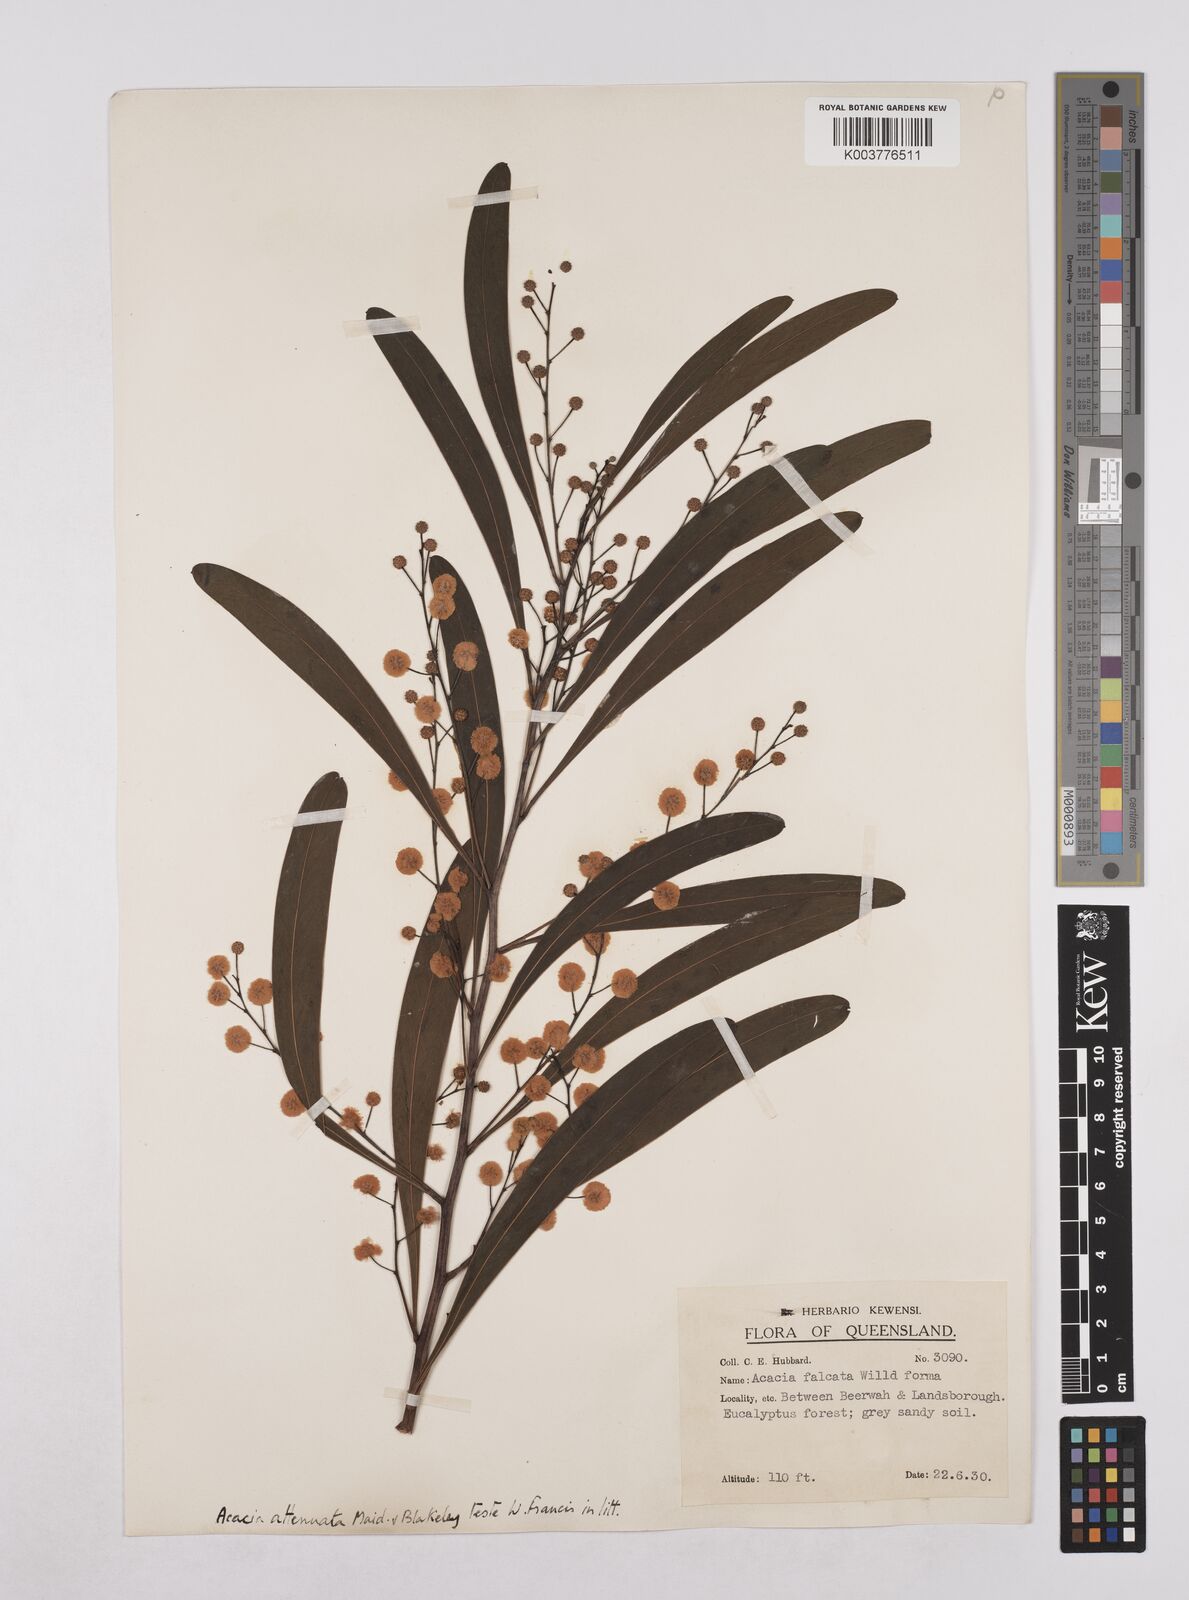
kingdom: Plantae
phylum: Tracheophyta
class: Magnoliopsida
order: Fabales
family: Fabaceae
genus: Acacia
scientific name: Acacia attenuata
